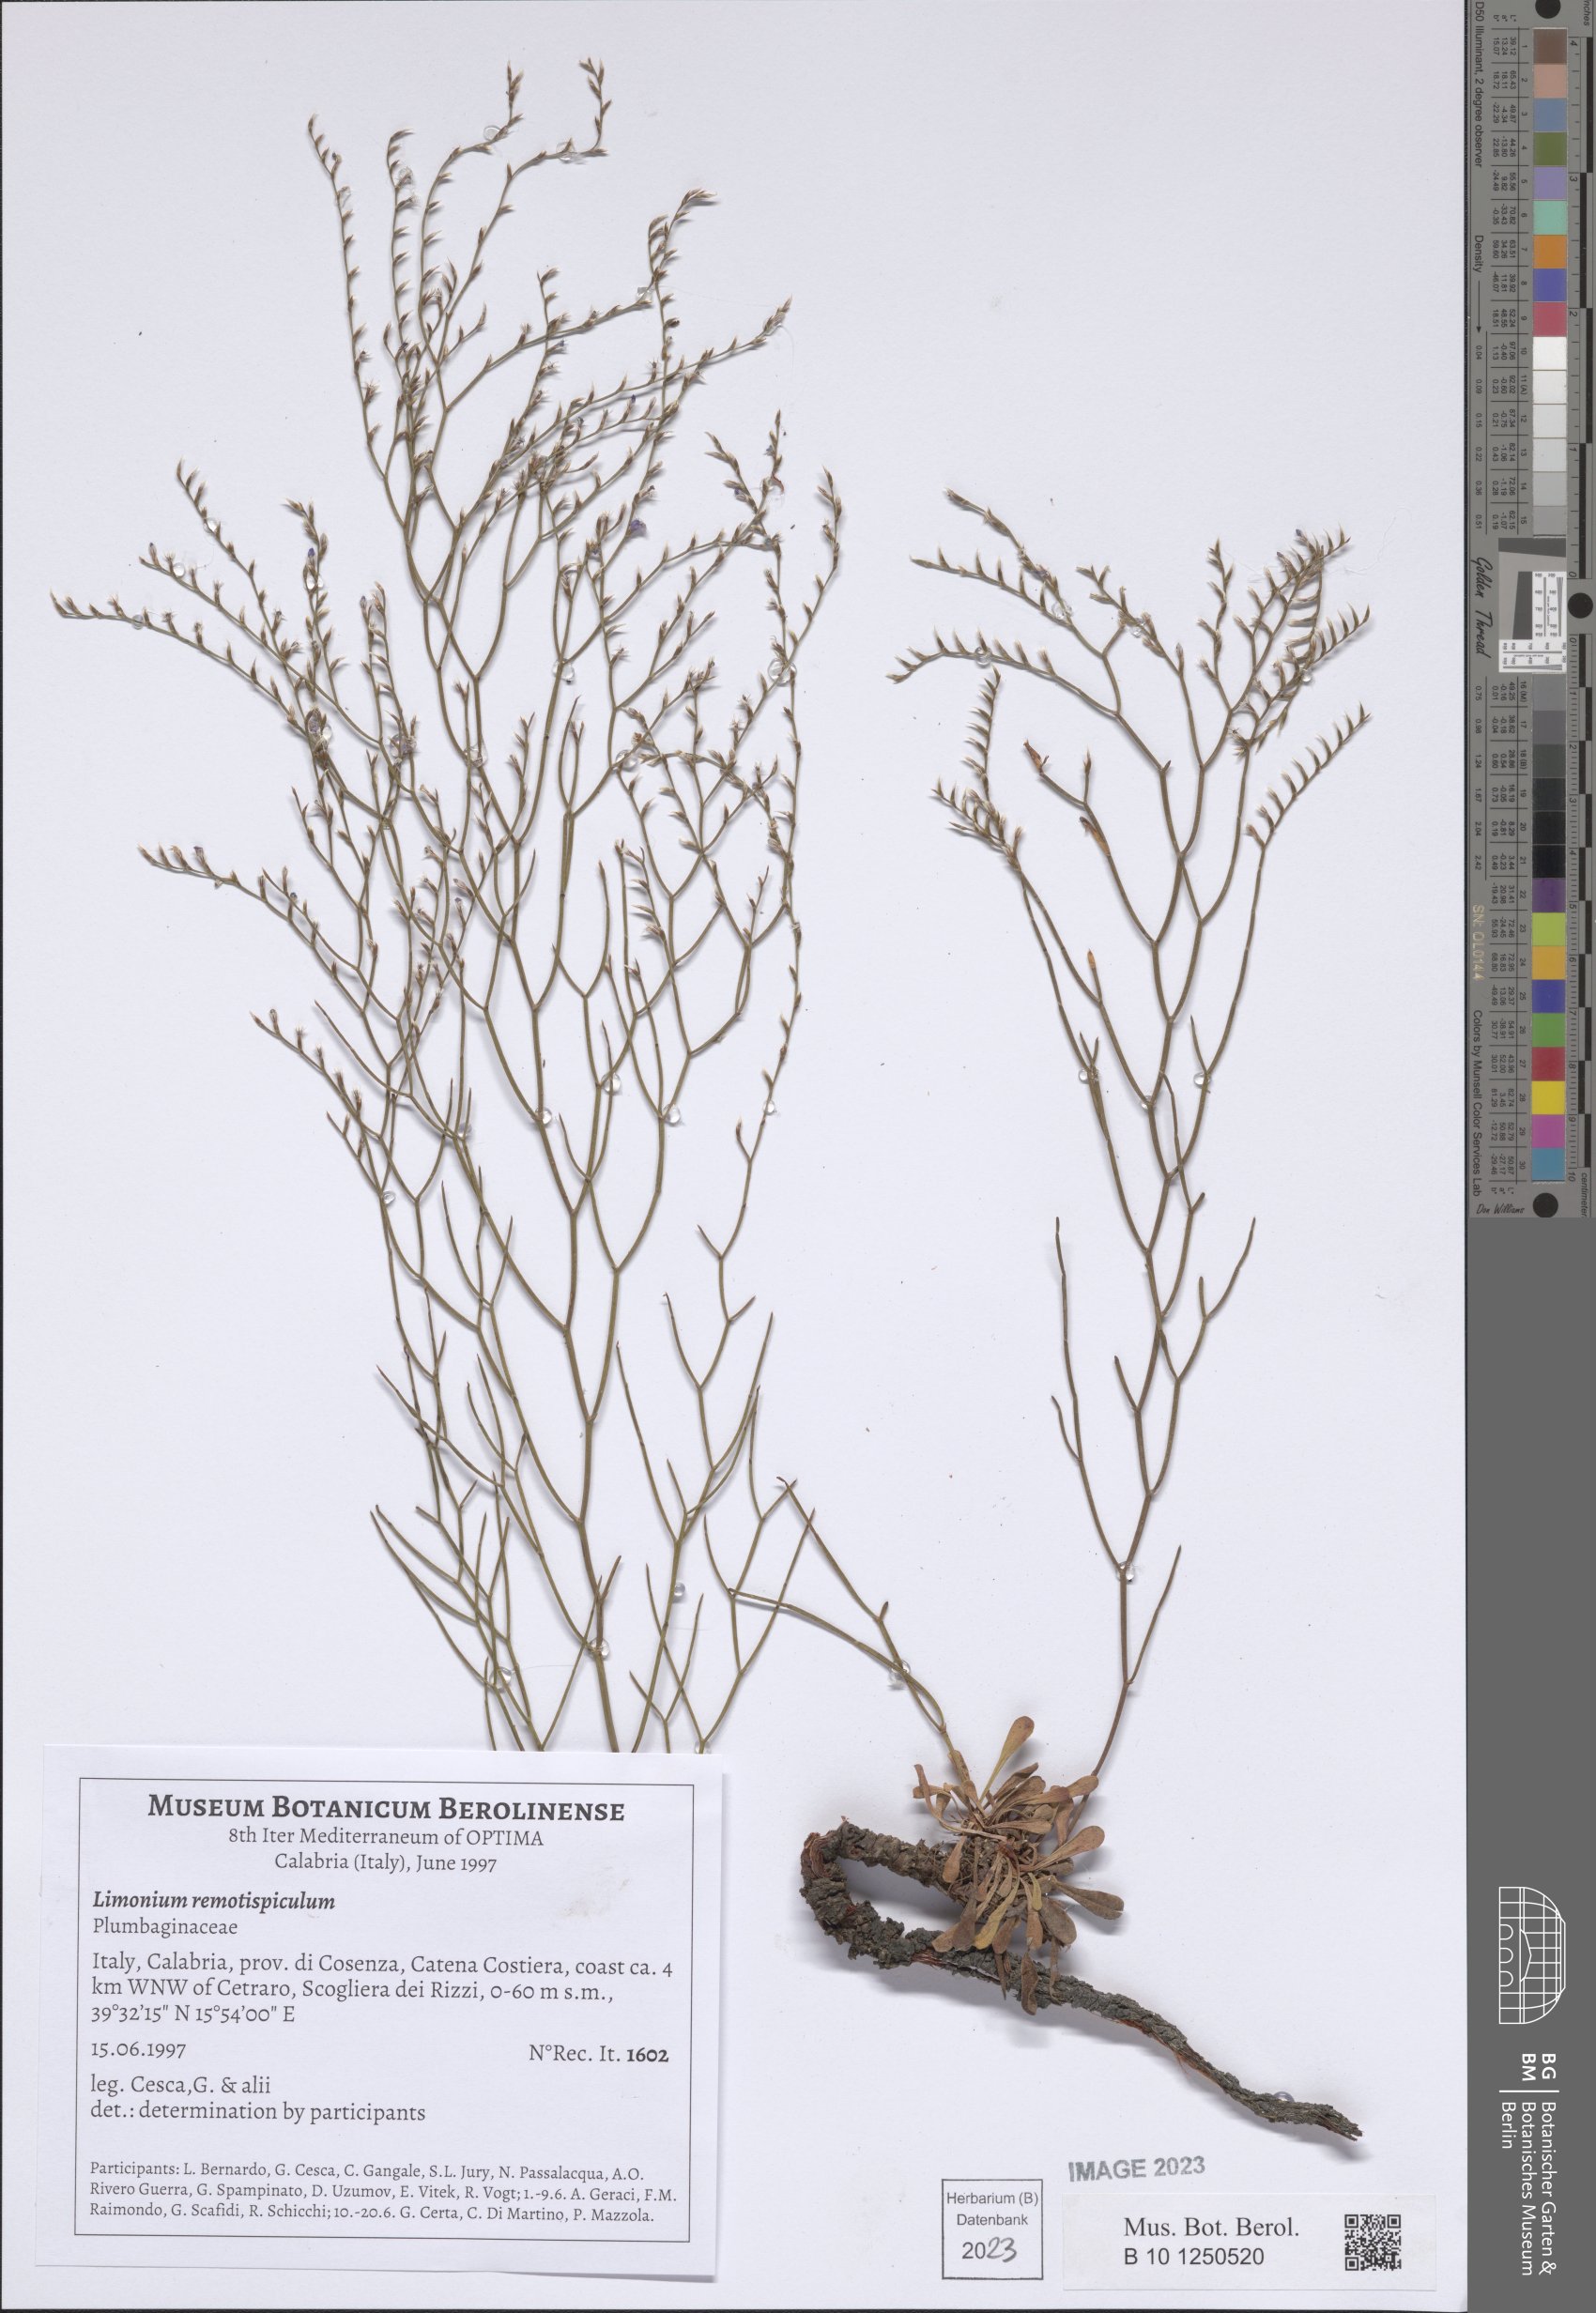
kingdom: Plantae
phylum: Tracheophyta
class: Magnoliopsida
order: Caryophyllales
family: Plumbaginaceae
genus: Limonium
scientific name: Limonium remotispiculum
